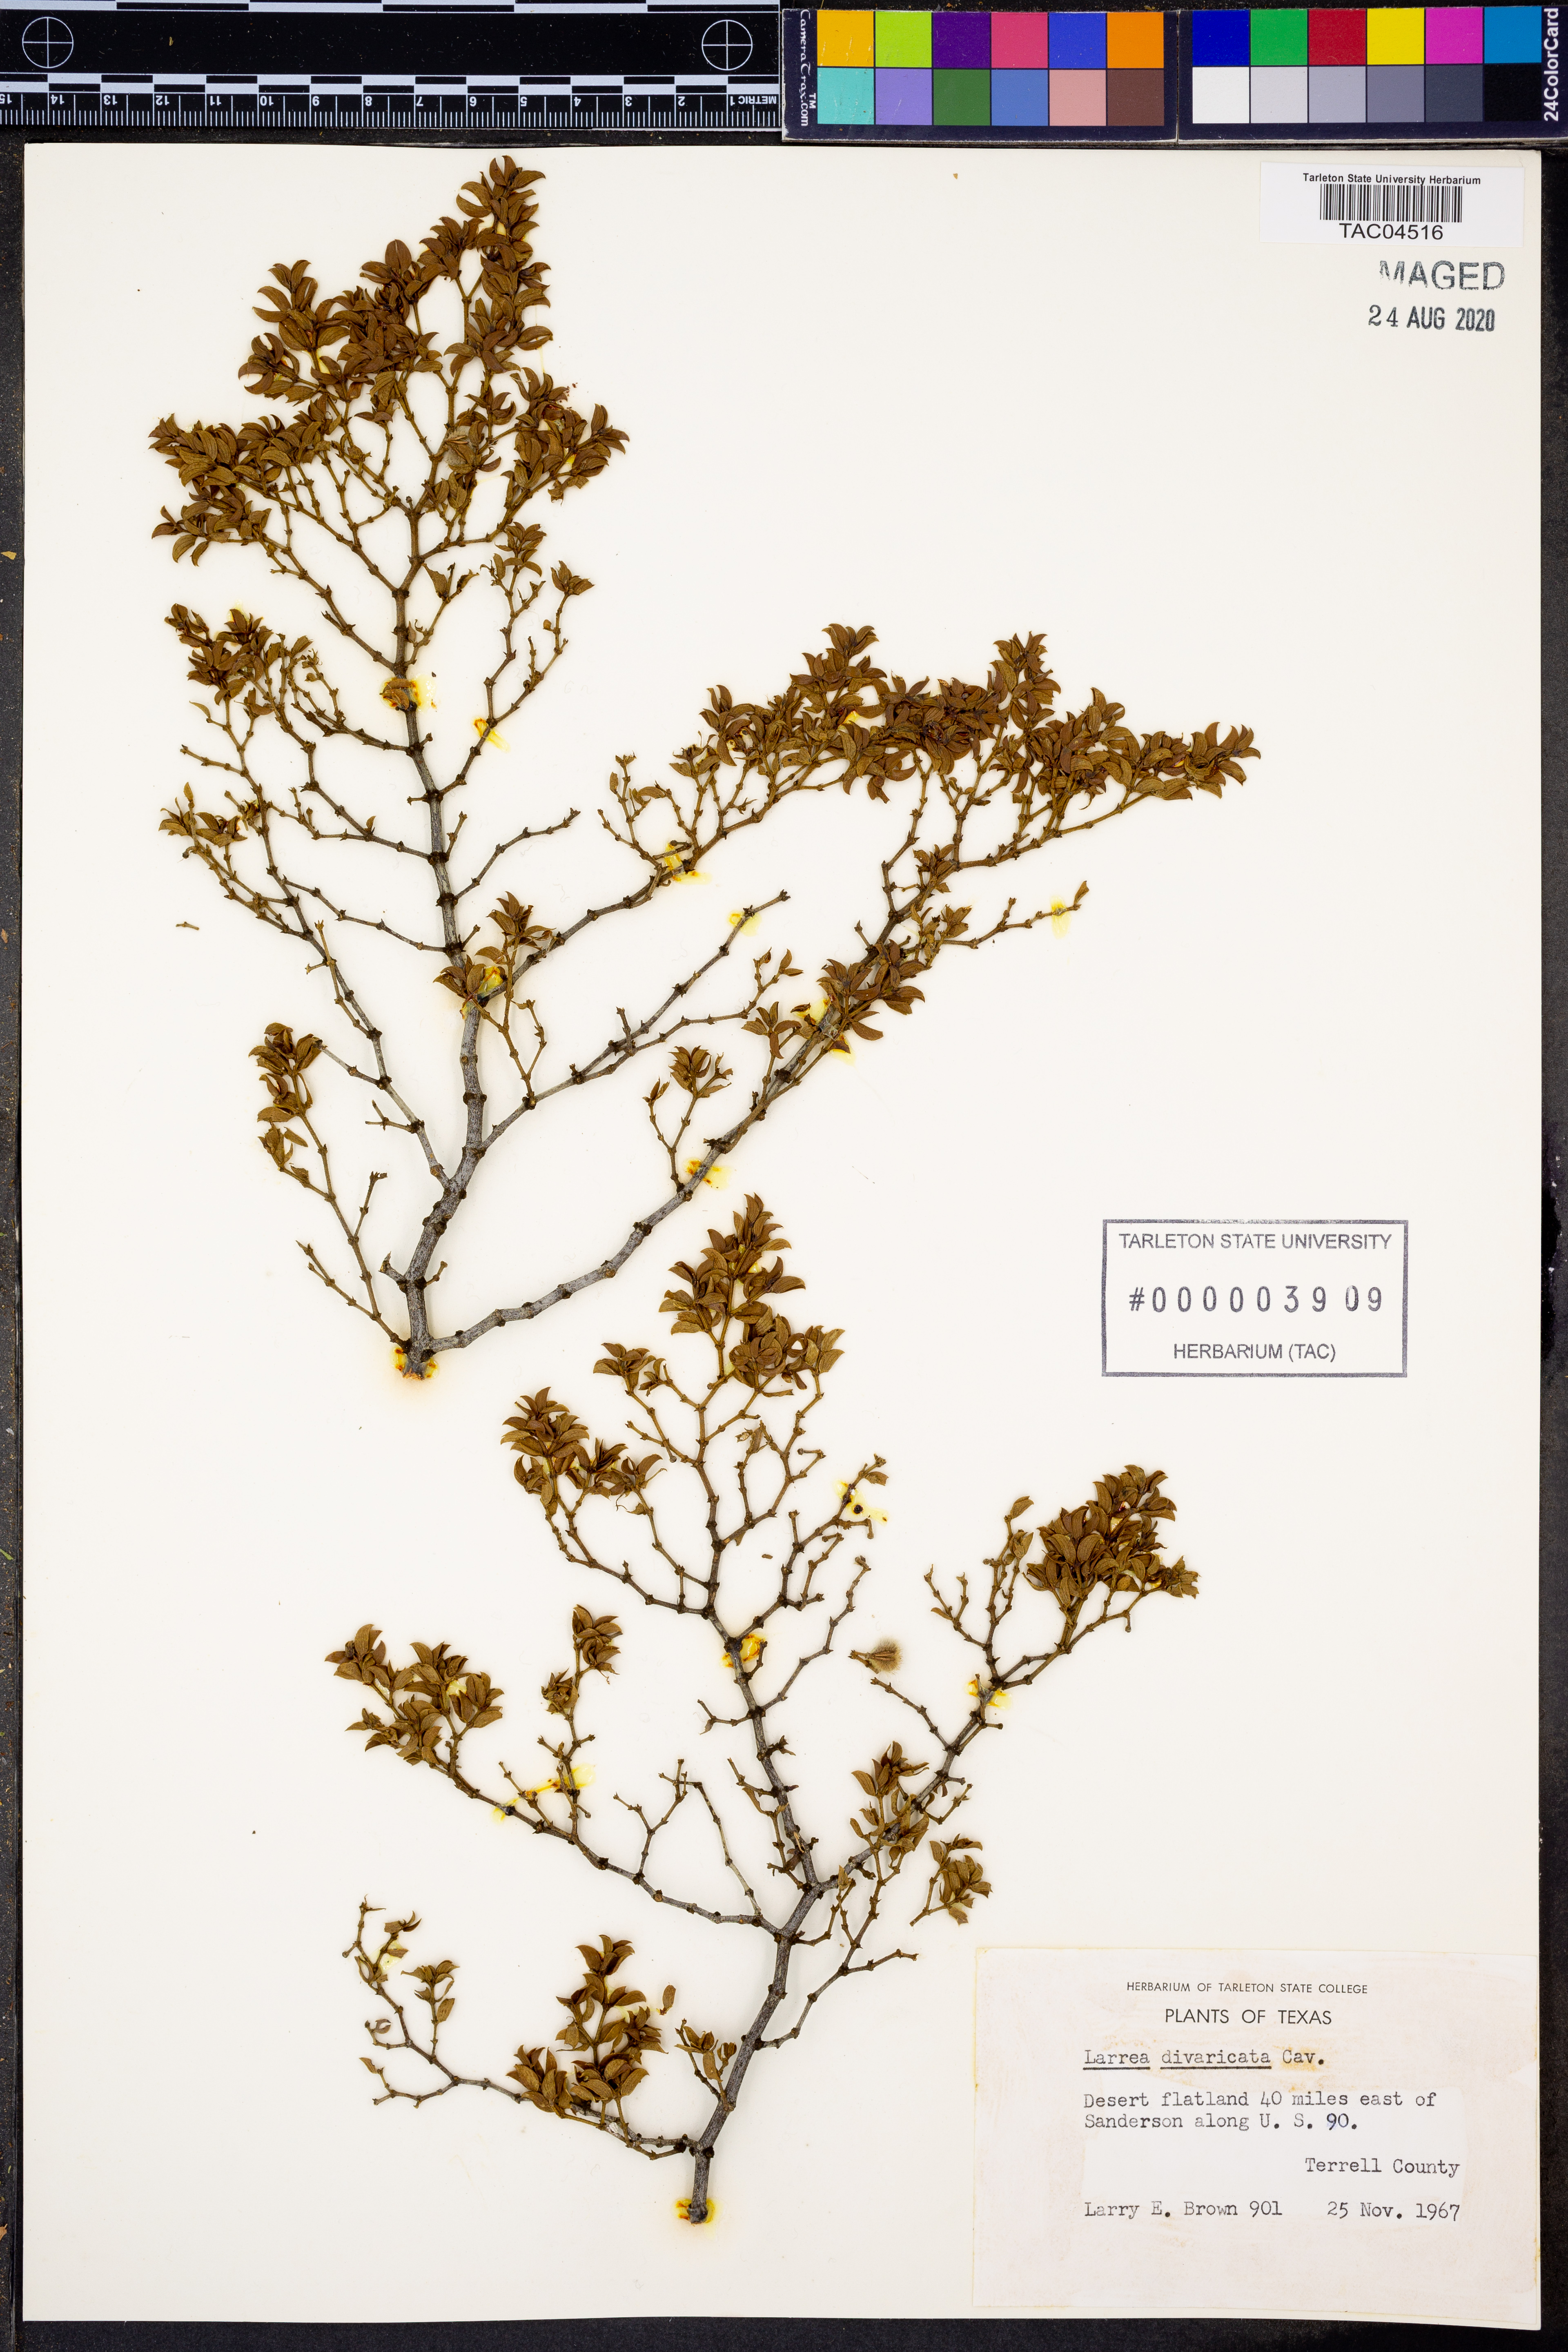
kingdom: Plantae
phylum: Tracheophyta
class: Magnoliopsida
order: Zygophyllales
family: Zygophyllaceae
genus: Larrea
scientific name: Larrea divaricata
